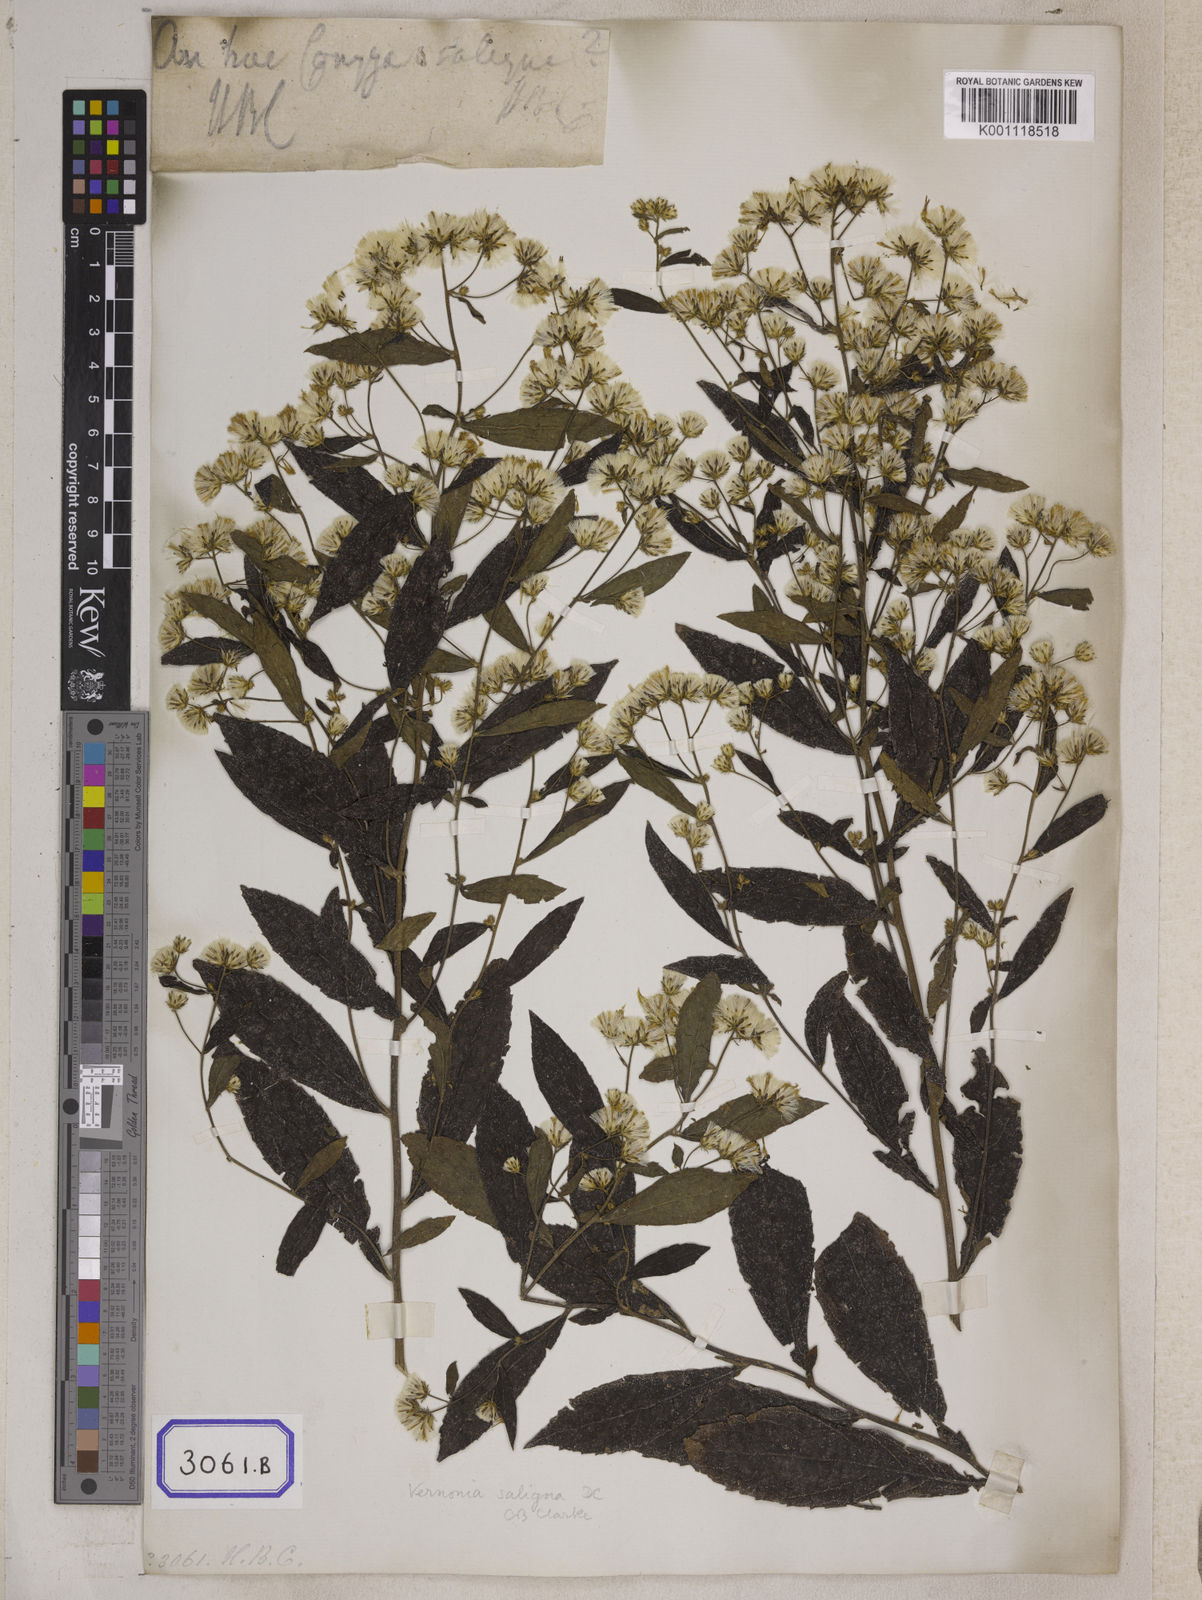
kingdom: Plantae
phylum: Tracheophyta
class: Magnoliopsida
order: Asterales
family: Asteraceae
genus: Acilepis
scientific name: Acilepis saligna
